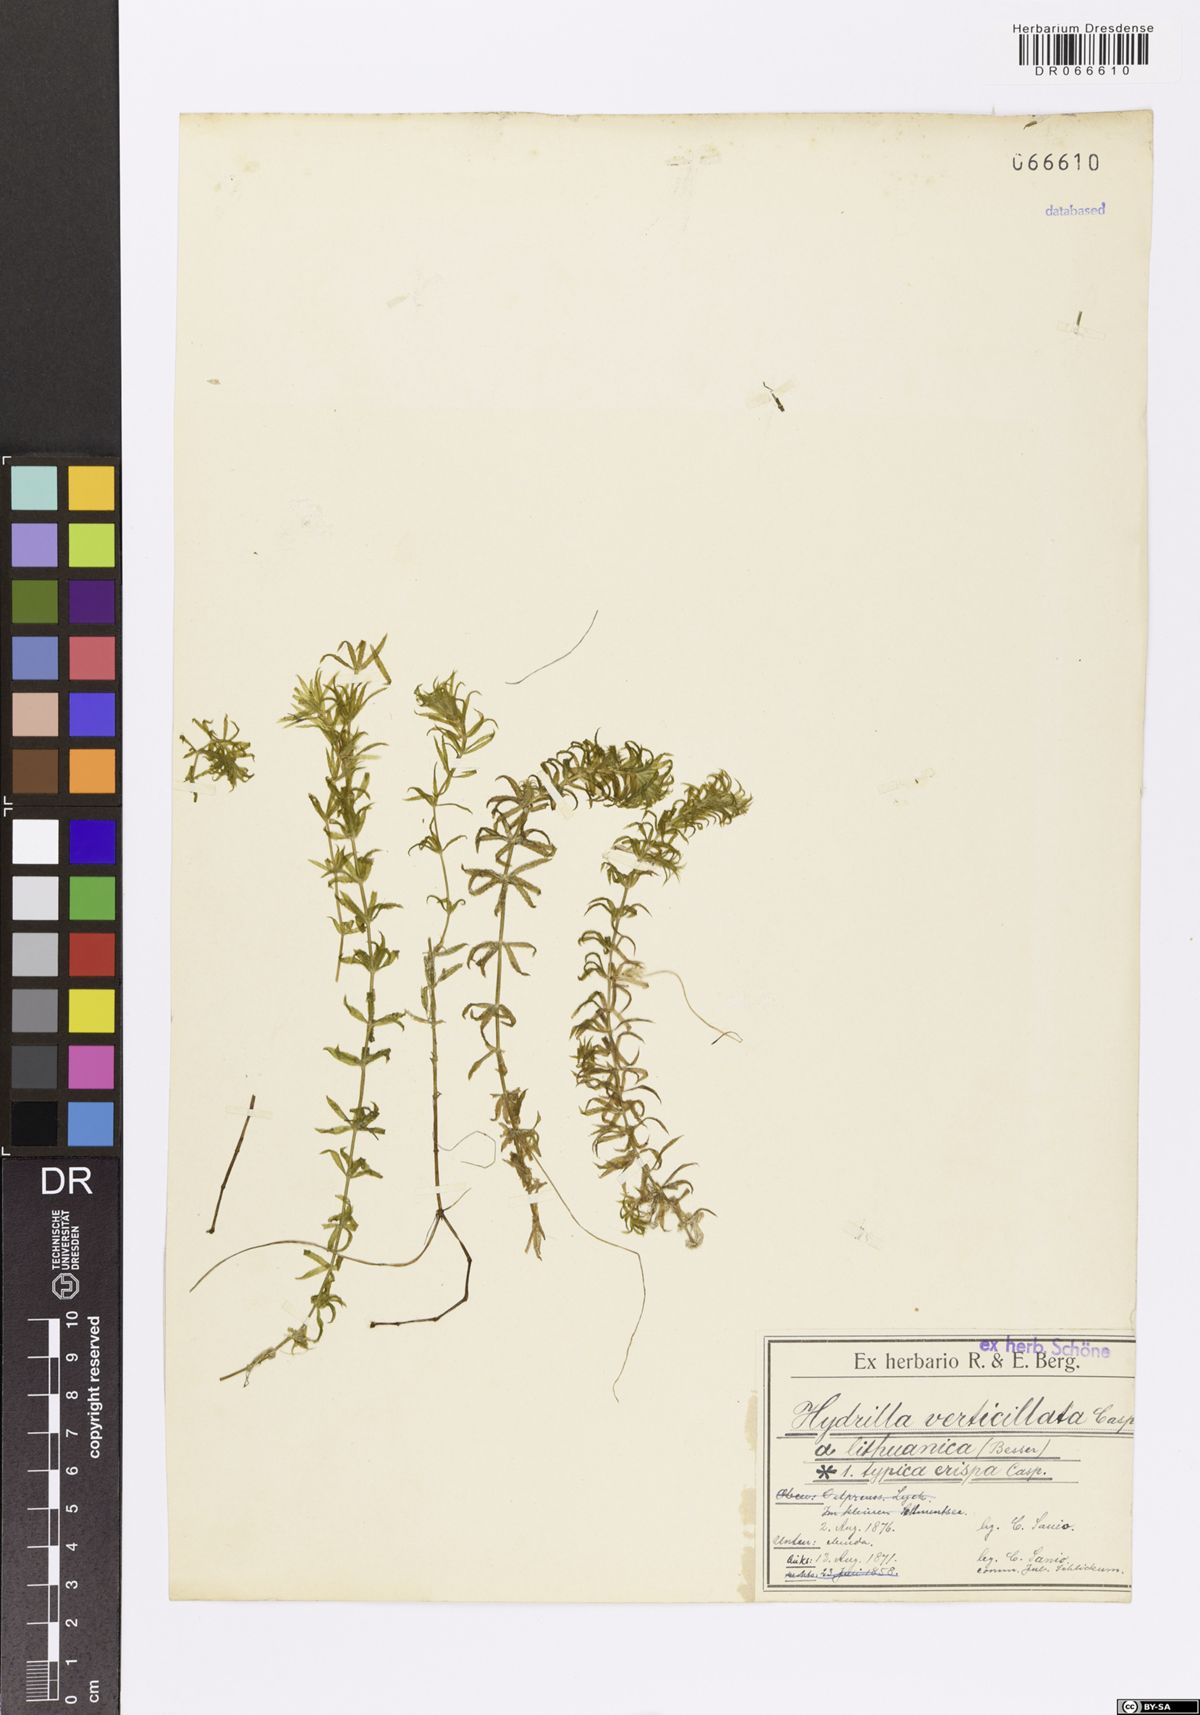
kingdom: Plantae
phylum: Tracheophyta
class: Liliopsida
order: Alismatales
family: Hydrocharitaceae
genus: Hydrilla
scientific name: Hydrilla verticillata
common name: Florida-elodea
